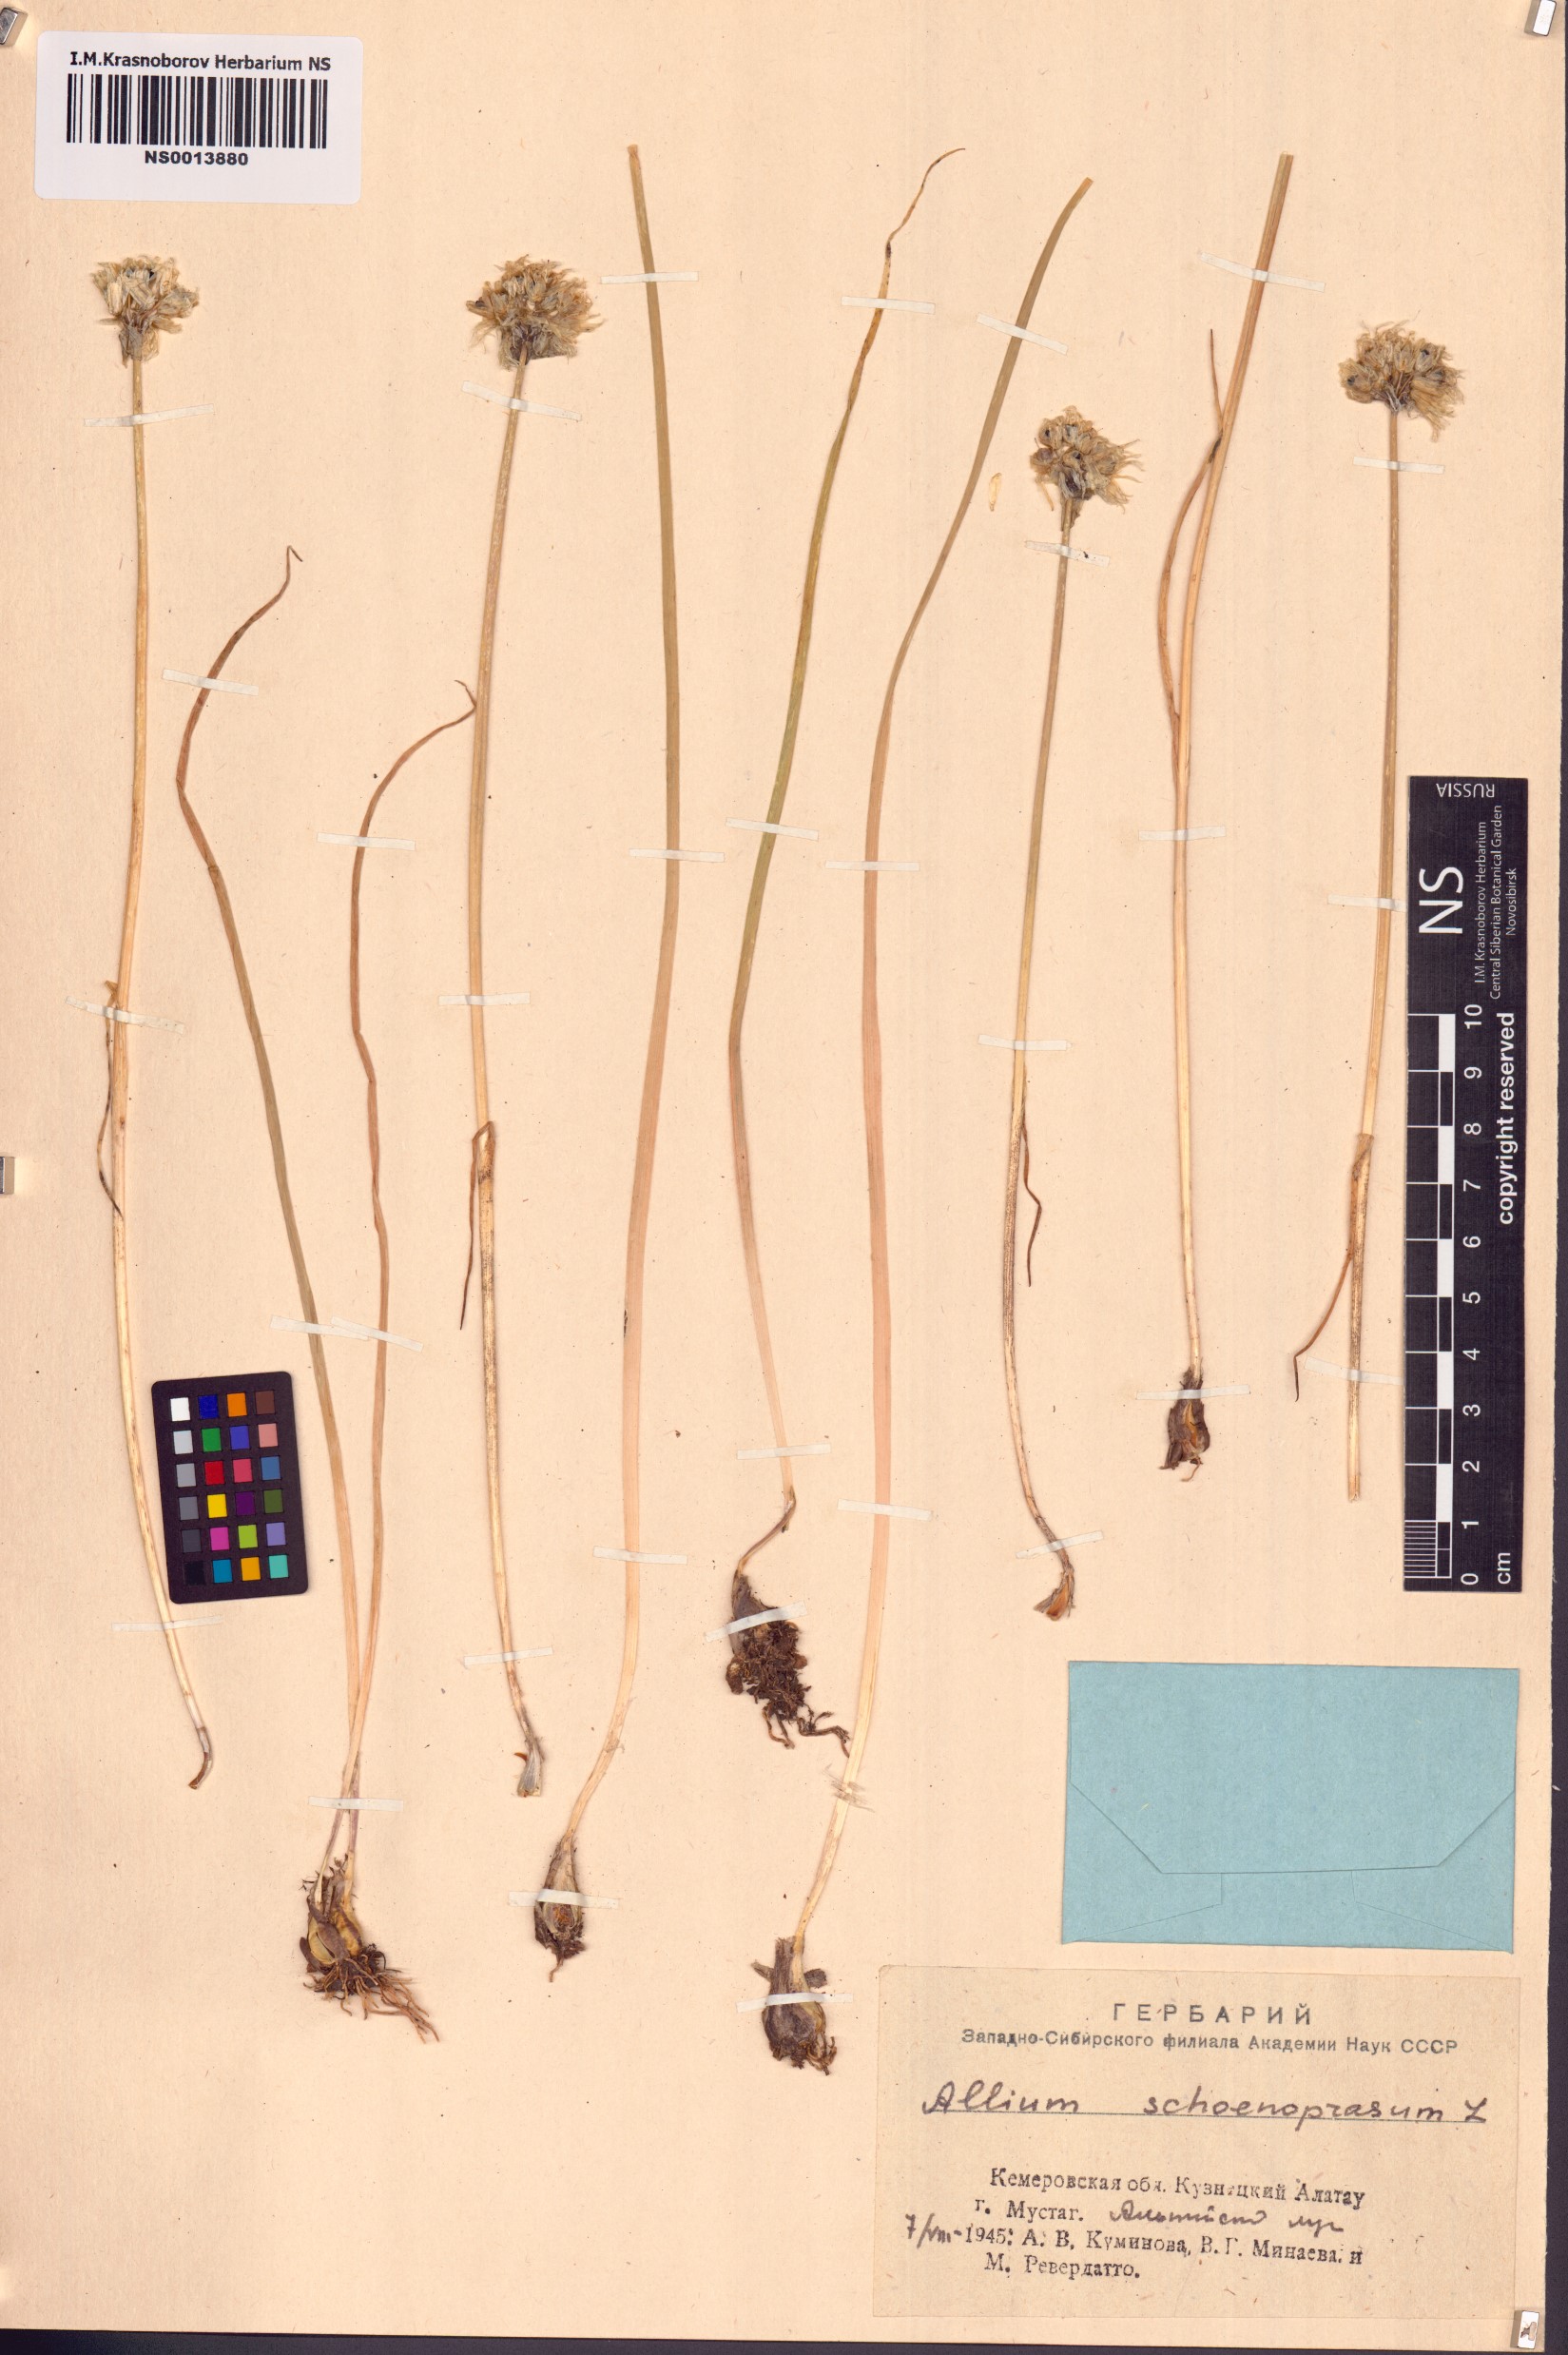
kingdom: Plantae
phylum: Tracheophyta
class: Liliopsida
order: Asparagales
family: Amaryllidaceae
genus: Allium
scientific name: Allium schoenoprasum
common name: Chives
